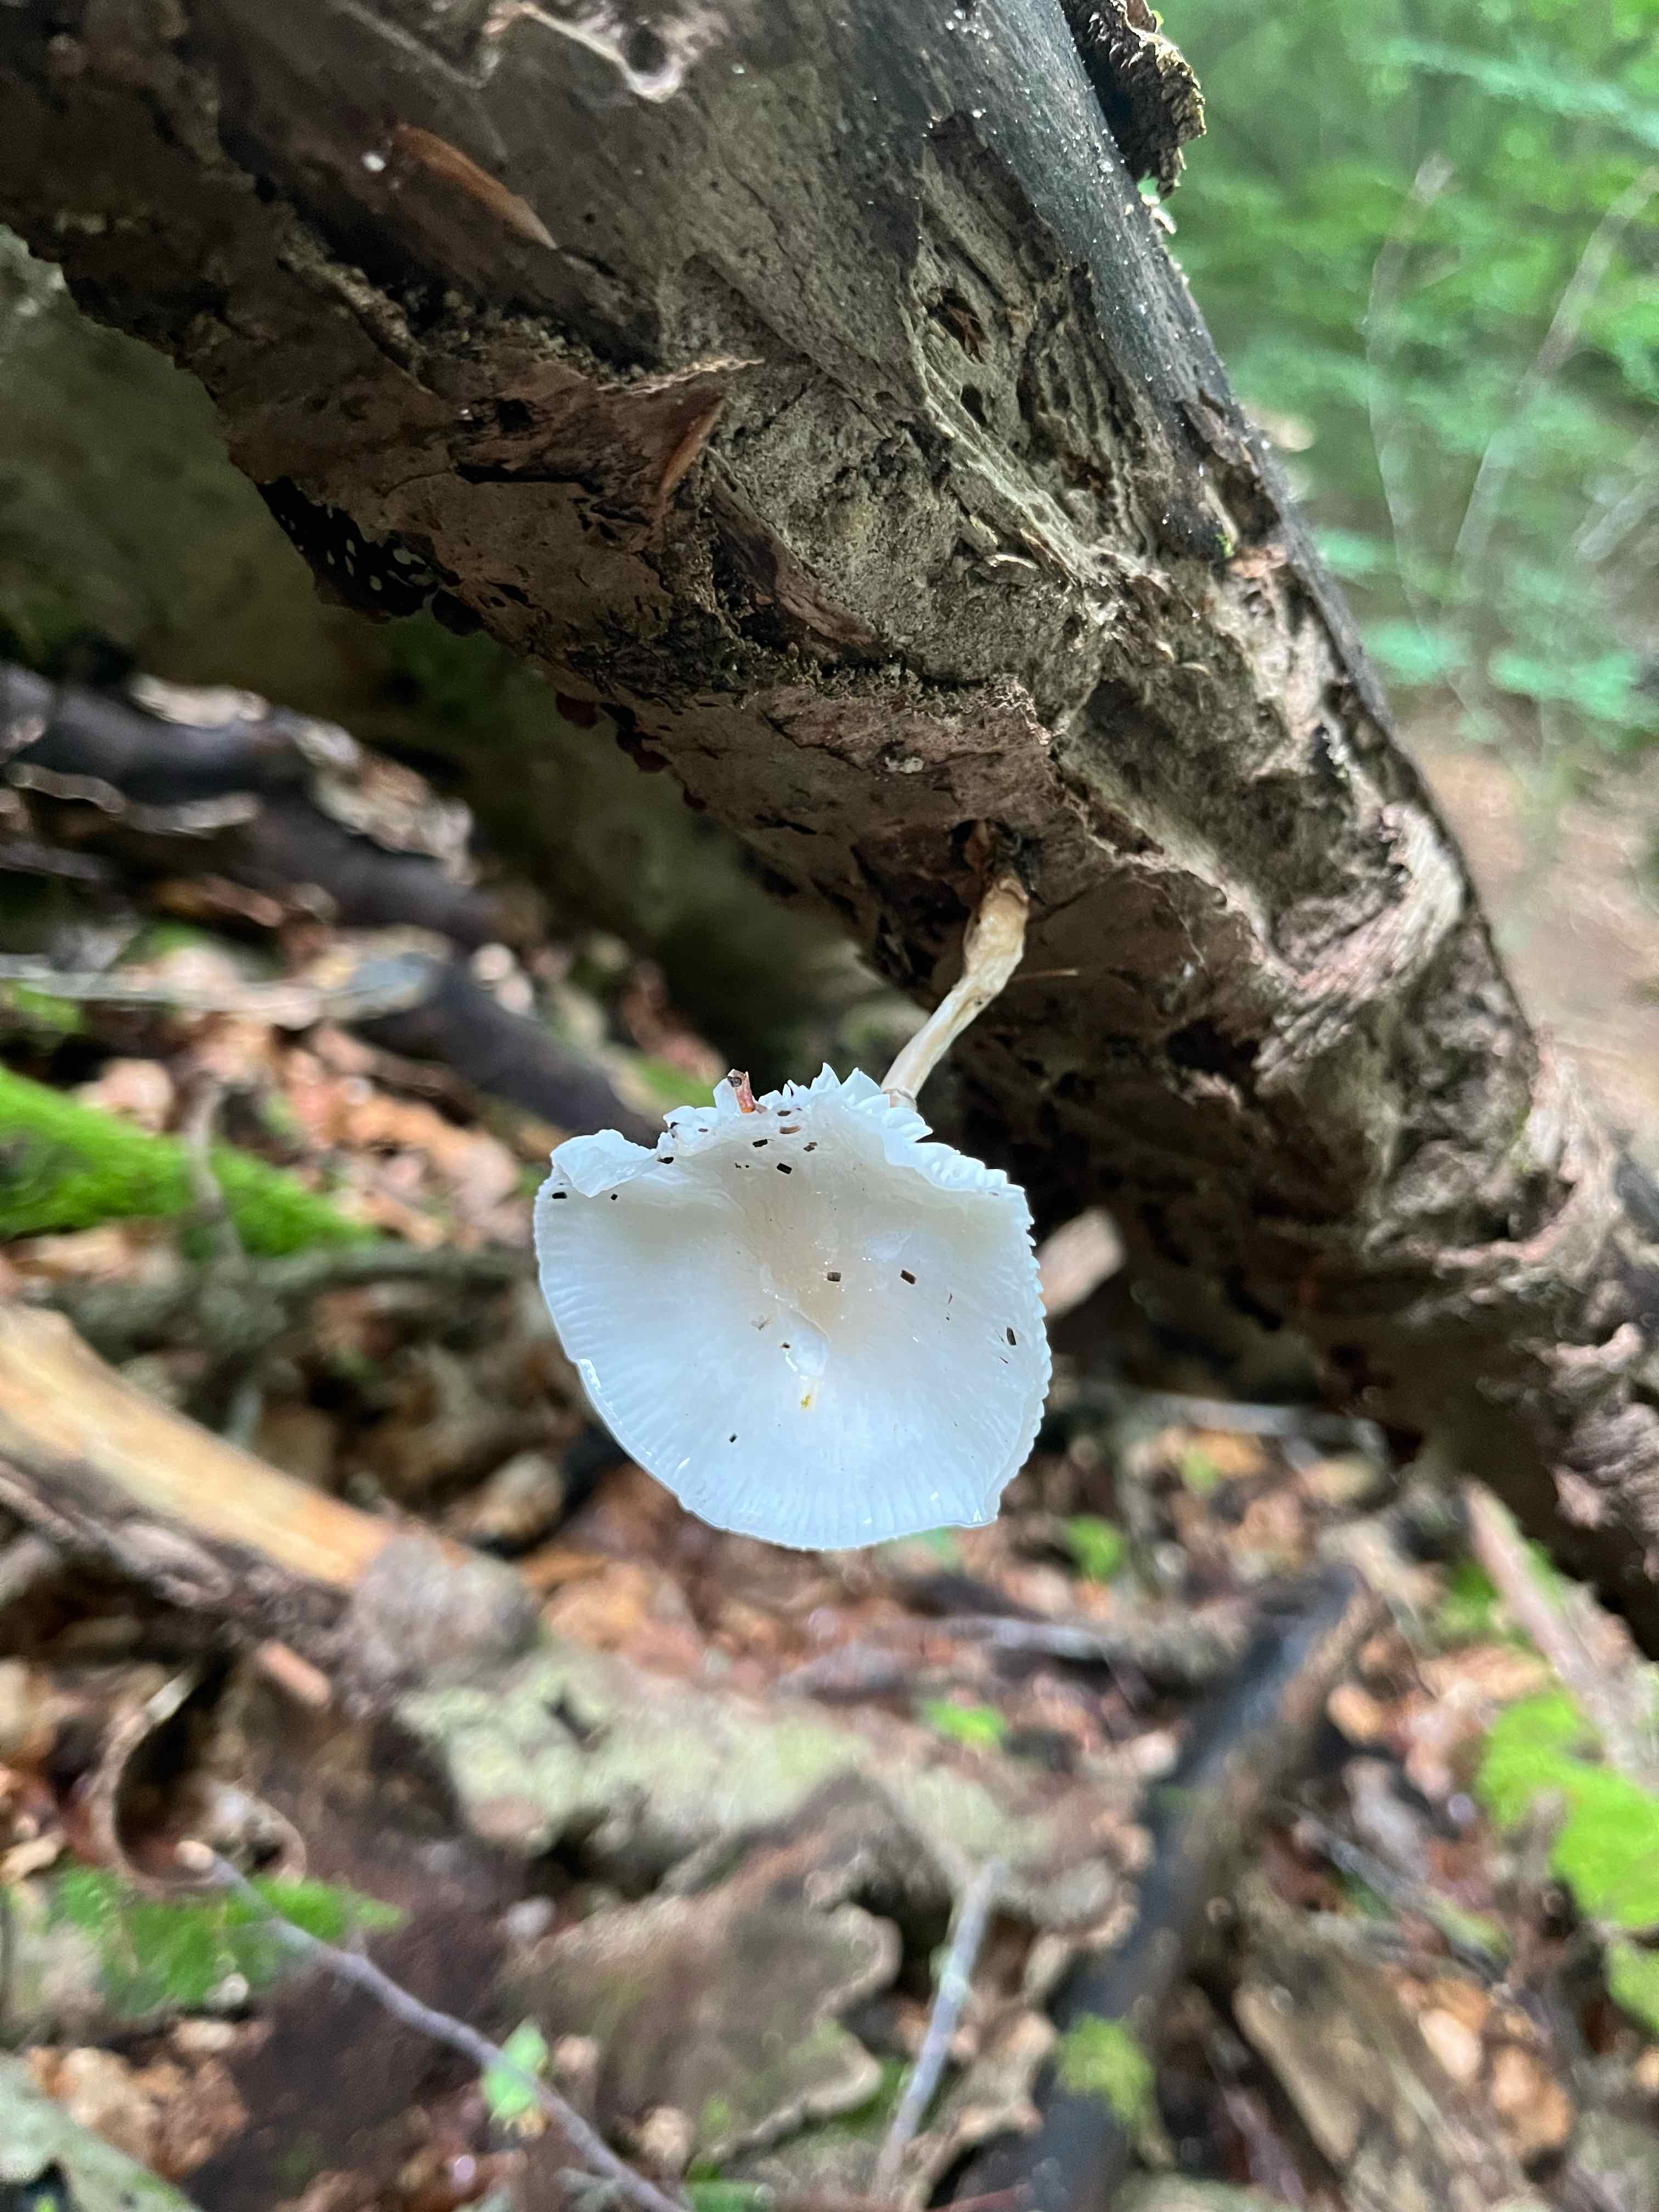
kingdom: Fungi
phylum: Basidiomycota
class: Agaricomycetes
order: Agaricales
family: Physalacriaceae
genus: Mucidula
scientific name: Mucidula mucida
